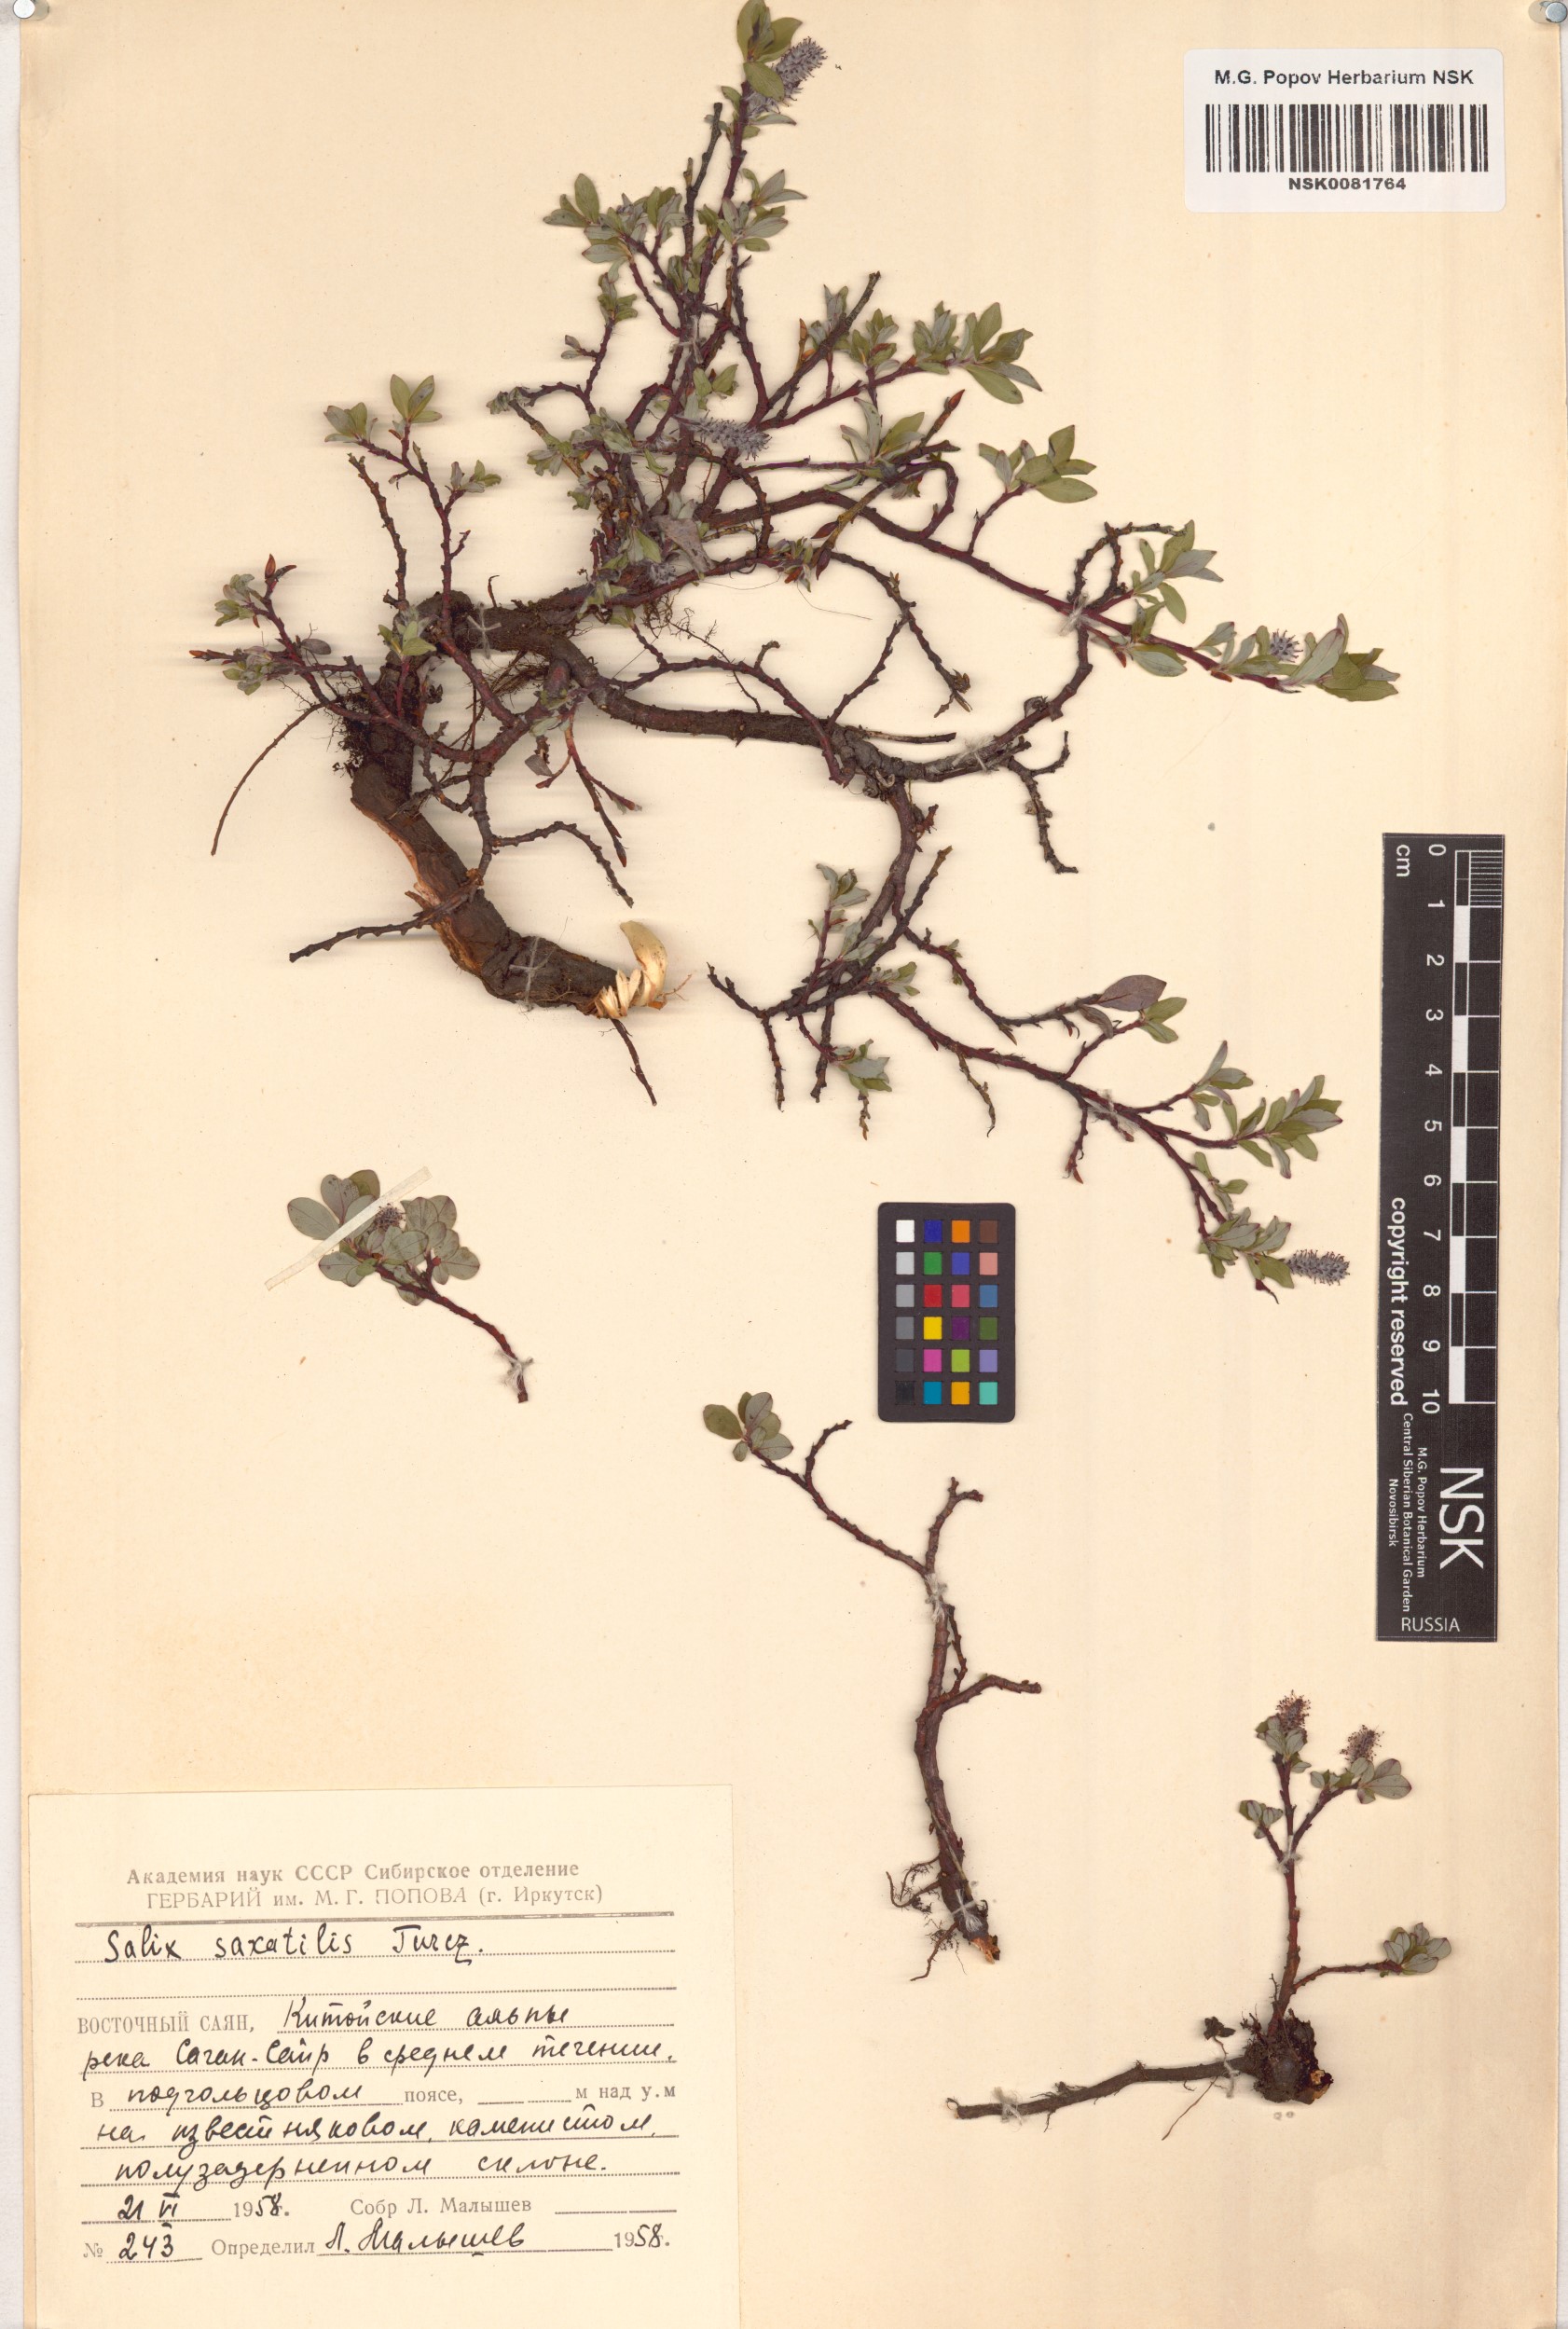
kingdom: Plantae
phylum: Tracheophyta
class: Magnoliopsida
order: Malpighiales
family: Salicaceae
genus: Salix
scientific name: Salix saxatilis
